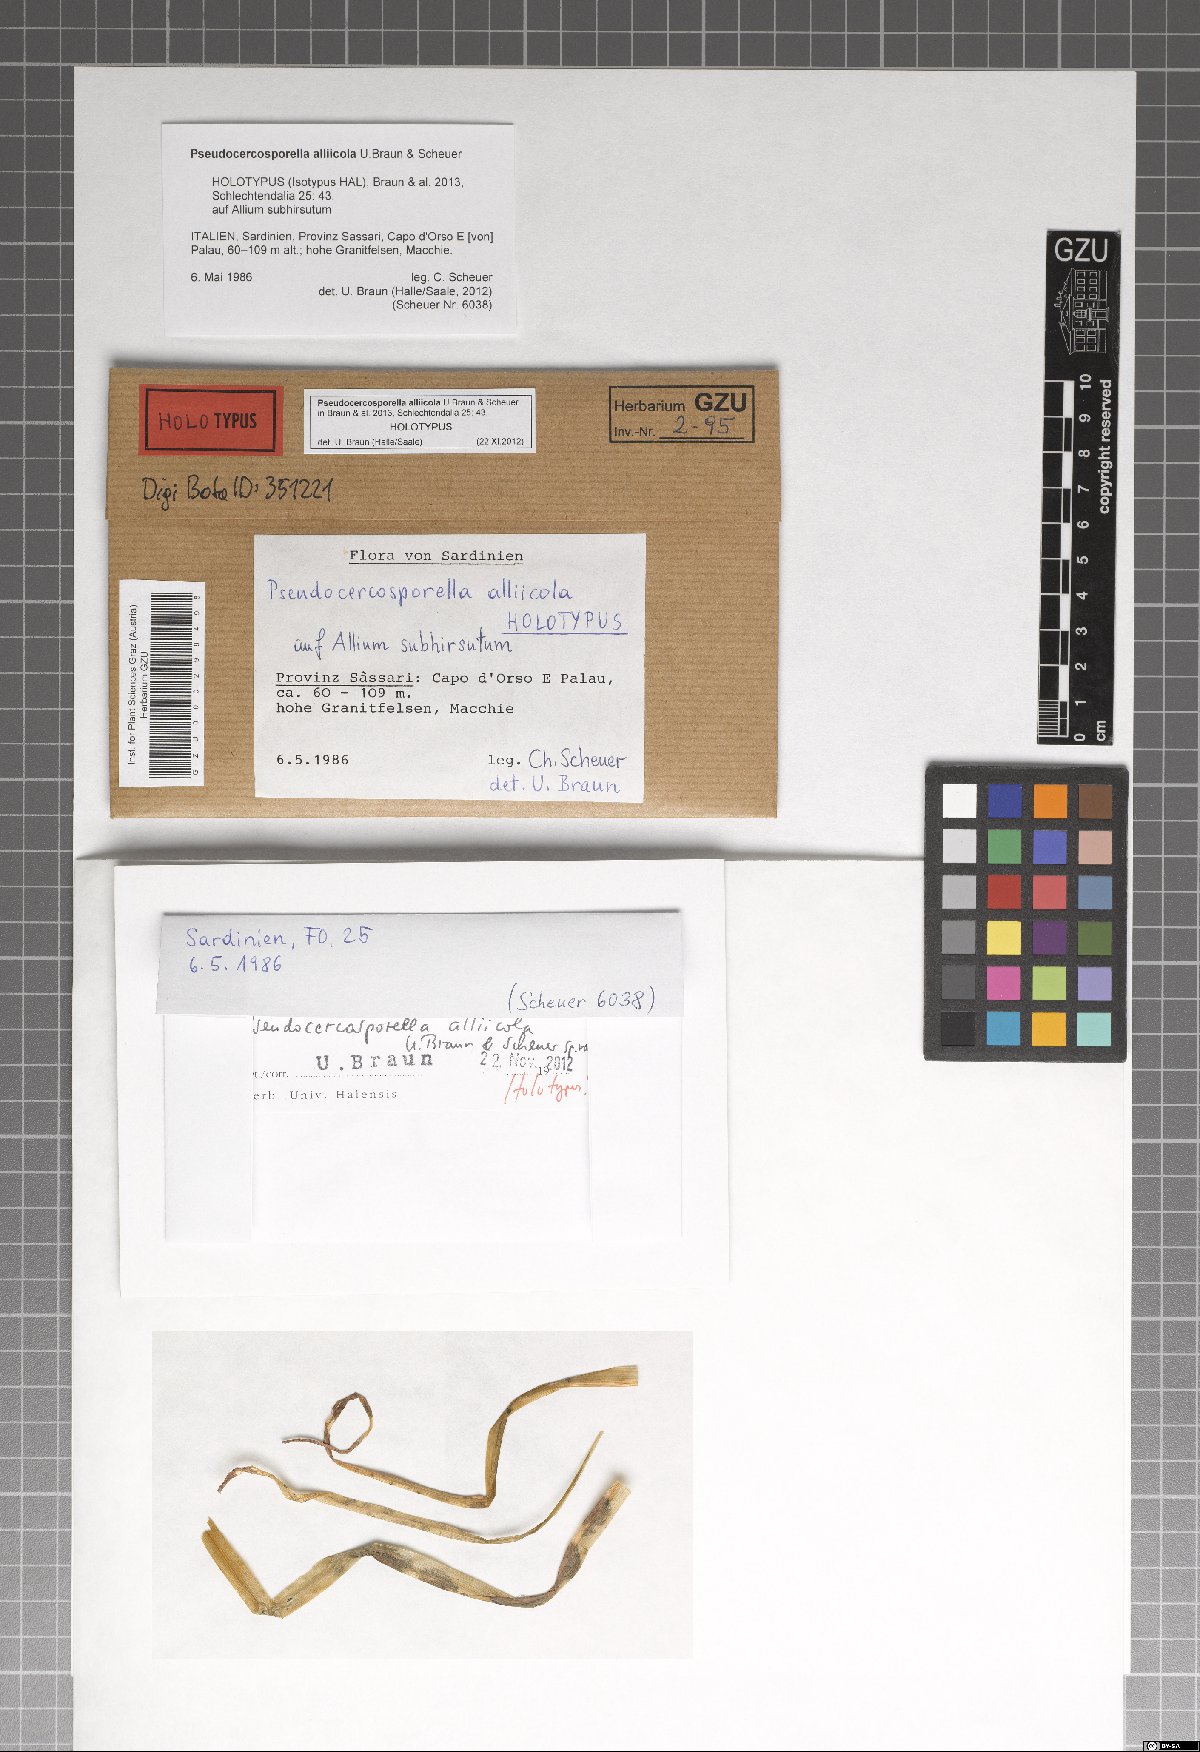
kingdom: Fungi
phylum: Ascomycota
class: Dothideomycetes
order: Mycosphaerellales
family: Mycosphaerellaceae
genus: Pseudocercosporella
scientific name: Pseudocercosporella alliicola
